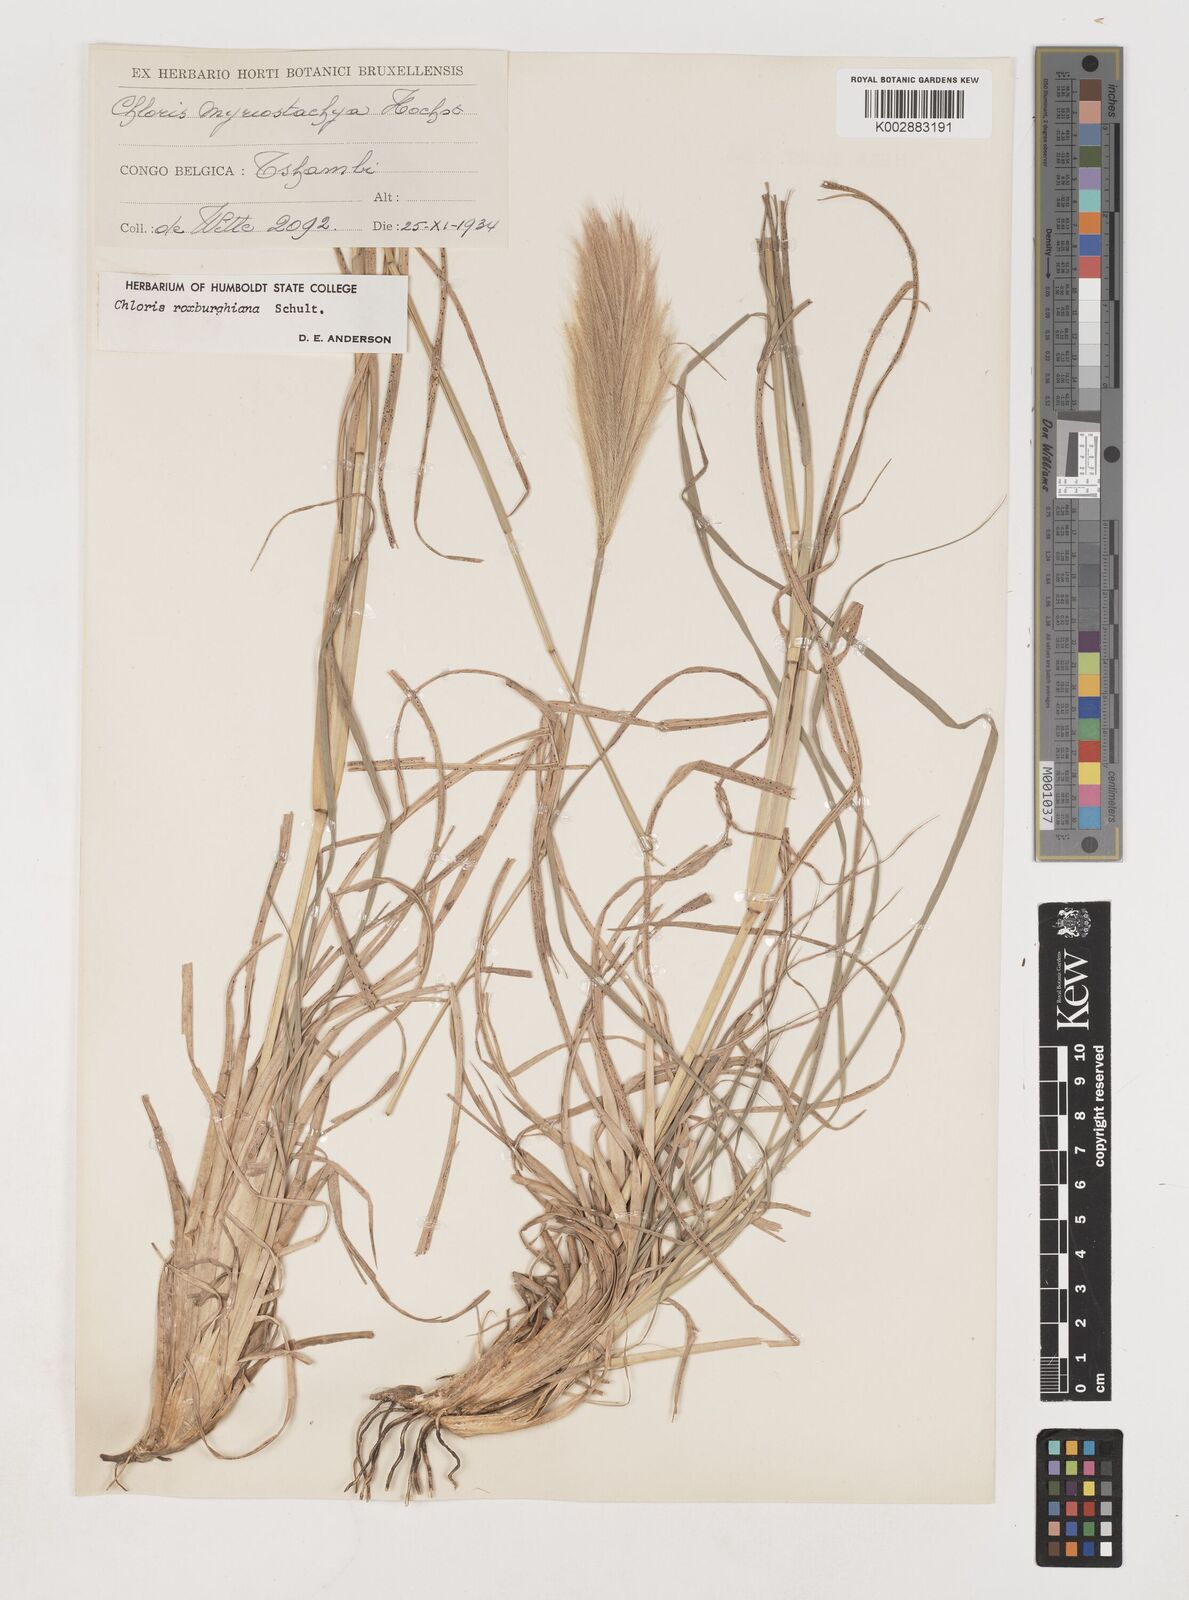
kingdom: Plantae
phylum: Tracheophyta
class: Liliopsida
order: Poales
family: Poaceae
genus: Tetrapogon
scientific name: Tetrapogon roxburghiana
